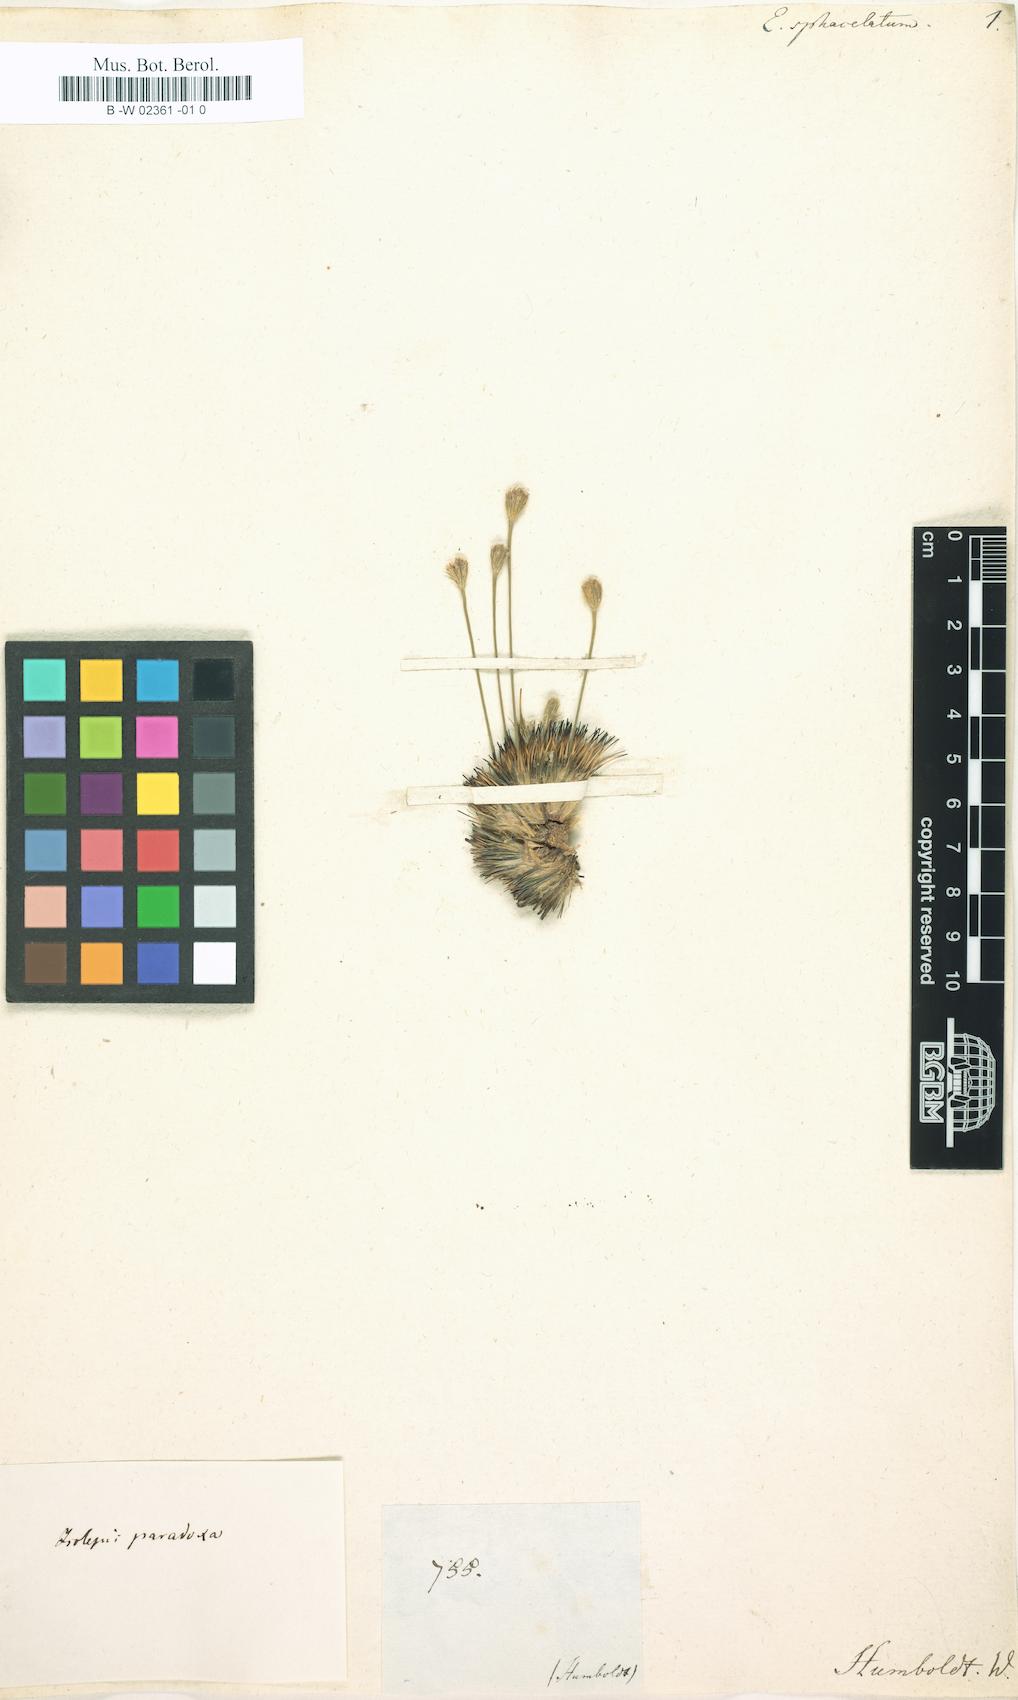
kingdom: Plantae
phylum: Tracheophyta
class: Liliopsida
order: Poales
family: Cyperaceae
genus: Bulbostylis
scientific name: Bulbostylis paradoxa
